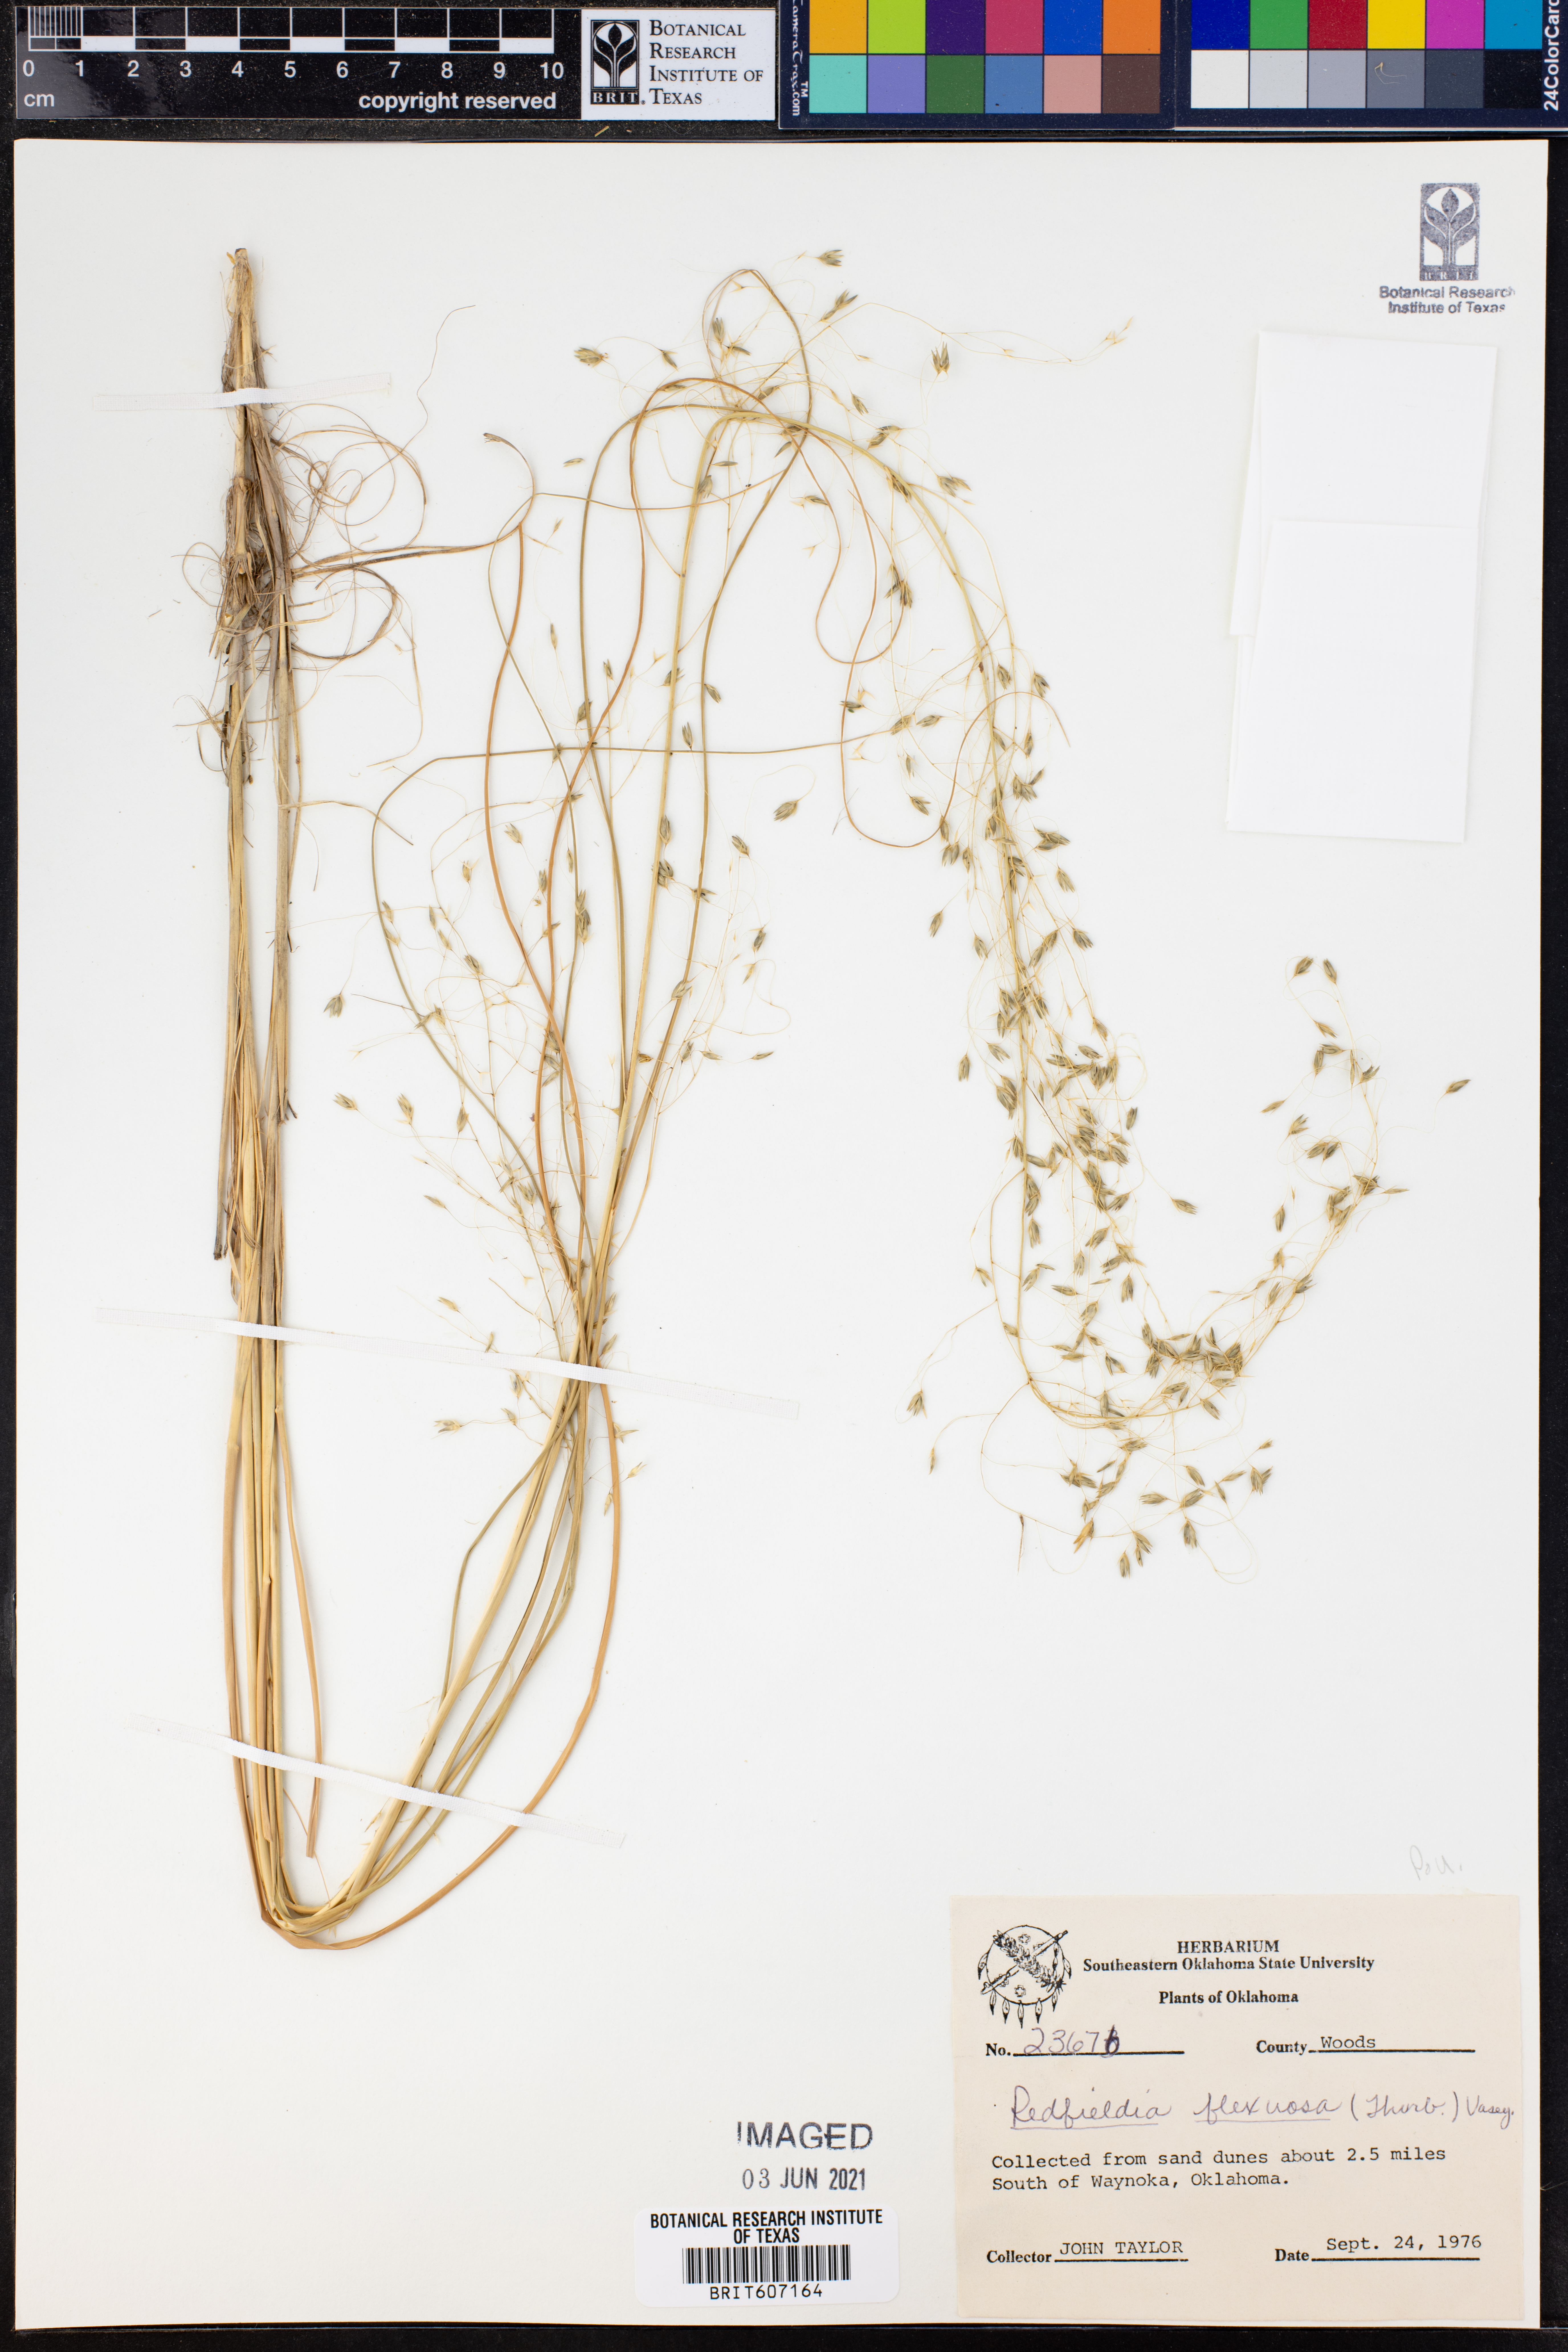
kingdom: Plantae
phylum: Tracheophyta
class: Liliopsida
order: Poales
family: Poaceae
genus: Muhlenbergia
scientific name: Muhlenbergia multiflora
